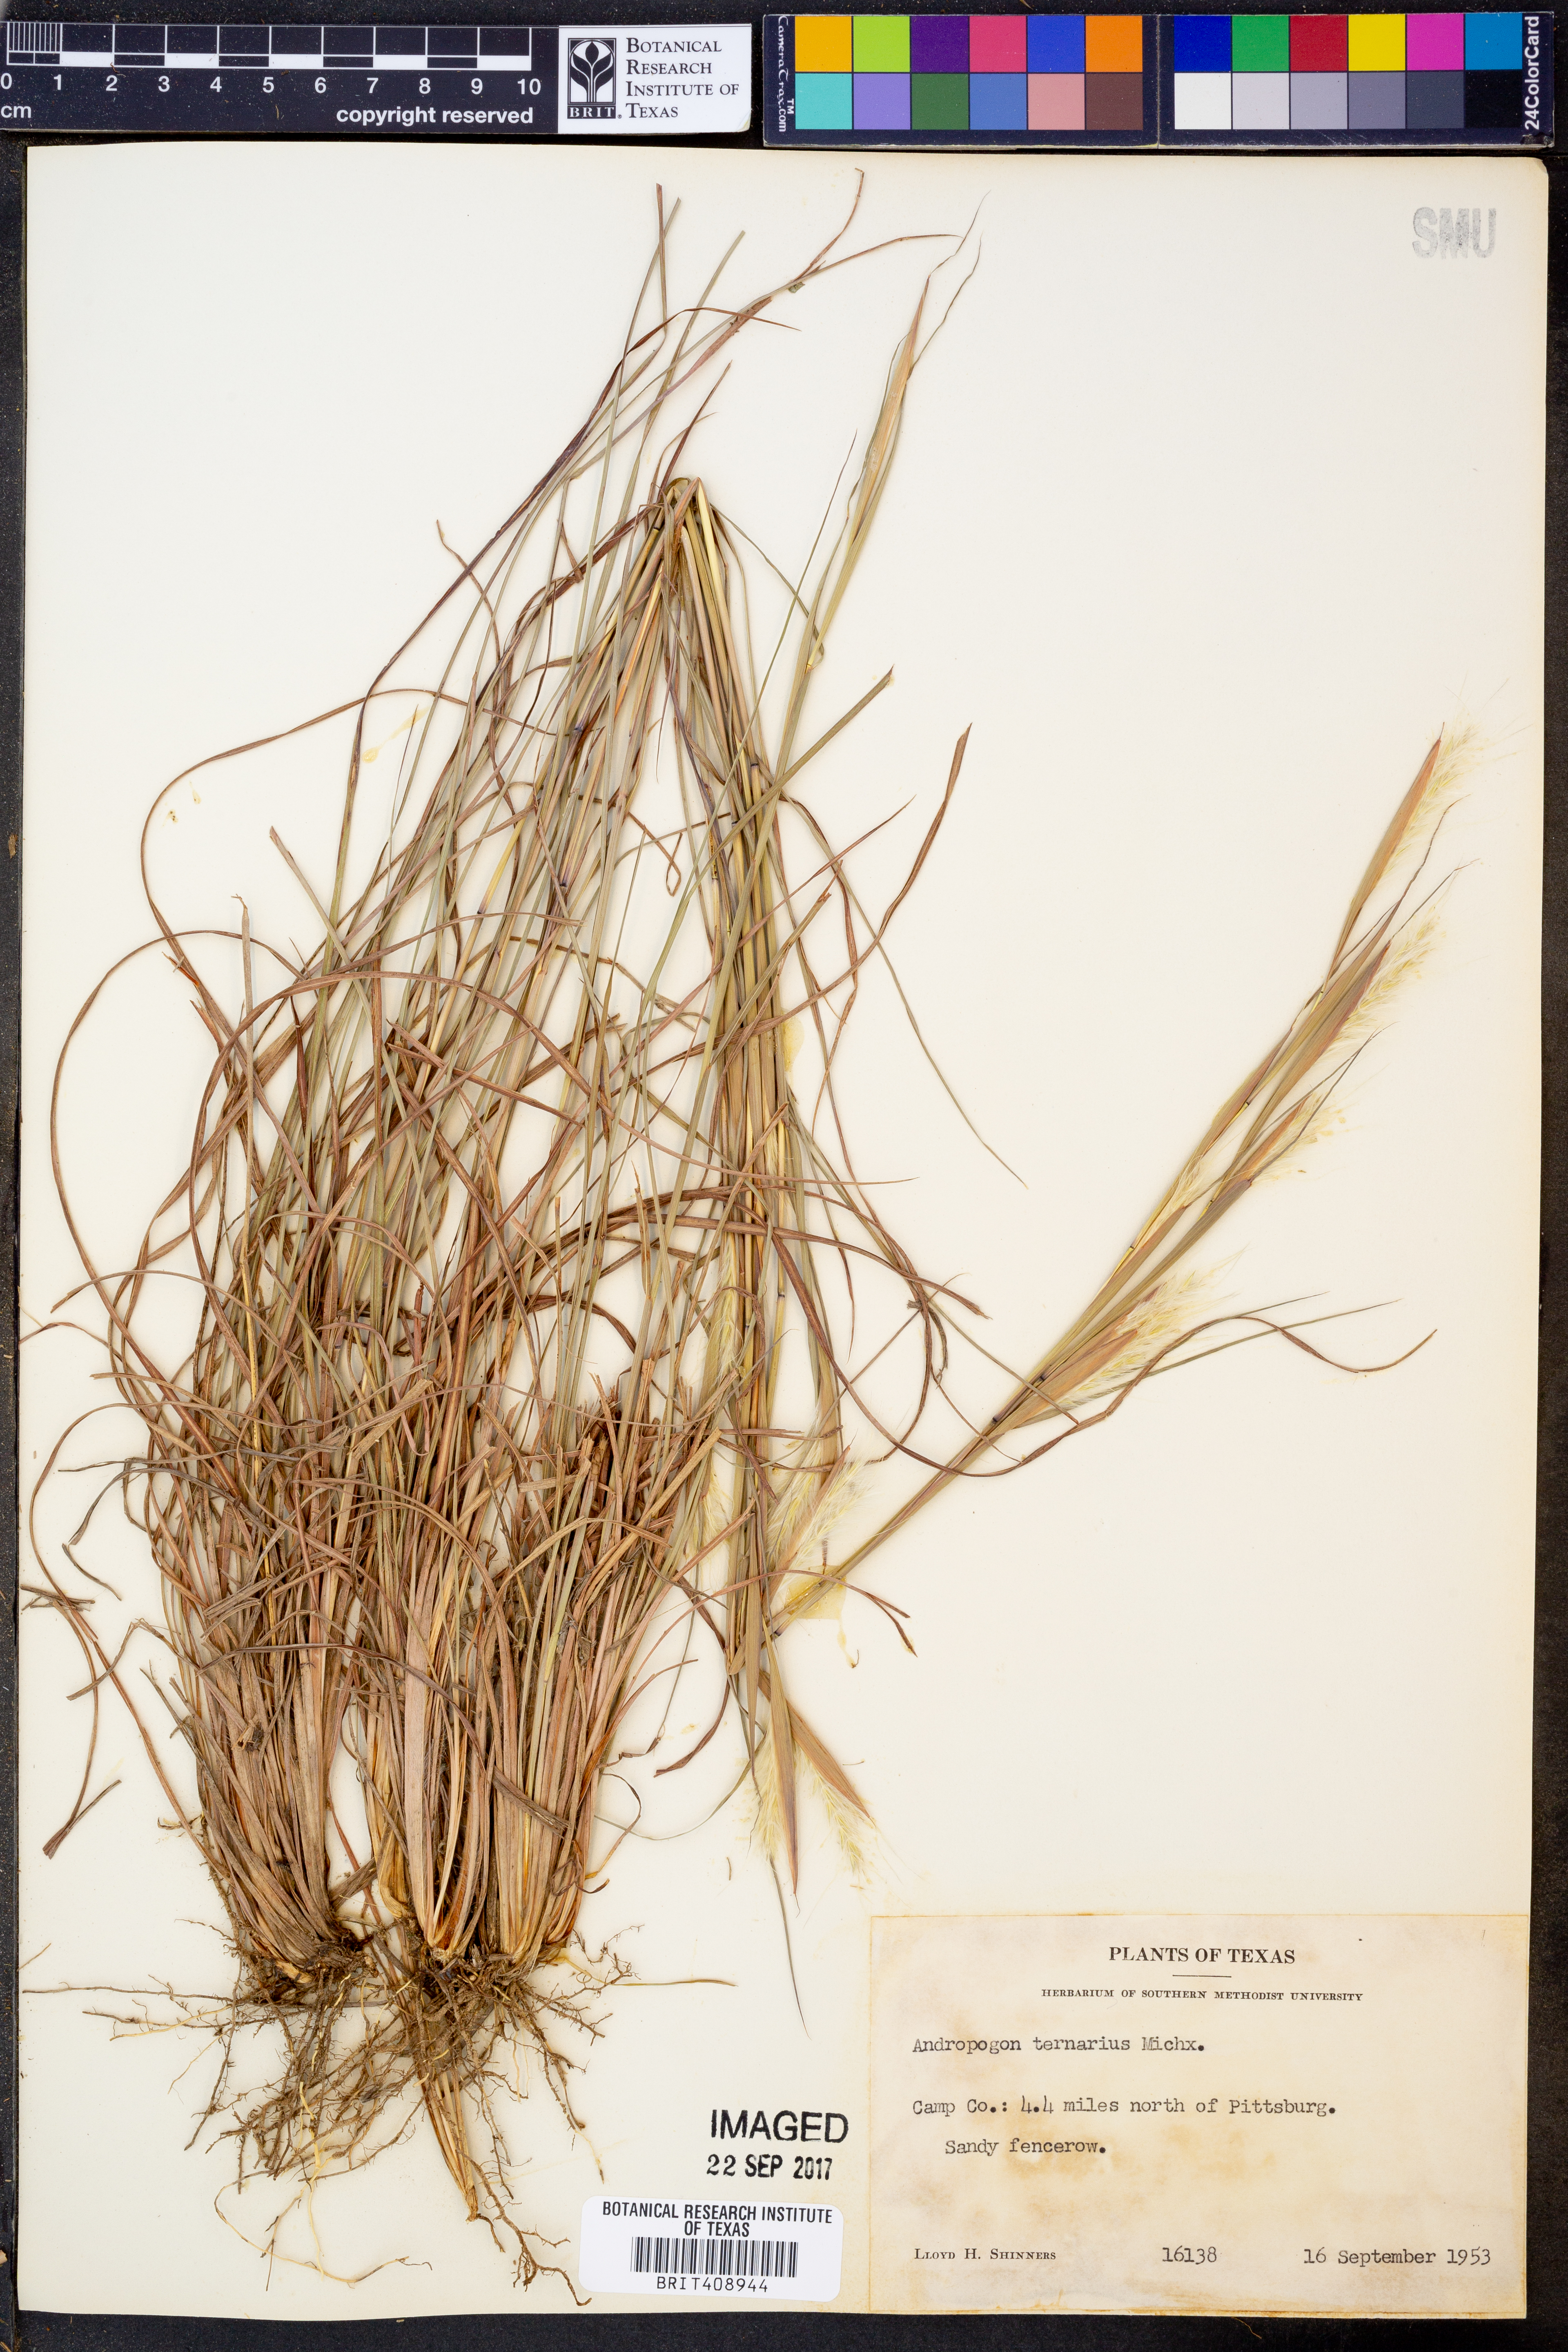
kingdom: Plantae
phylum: Tracheophyta
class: Liliopsida
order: Poales
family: Poaceae
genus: Andropogon
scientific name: Andropogon ternarius
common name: Split bluestem
